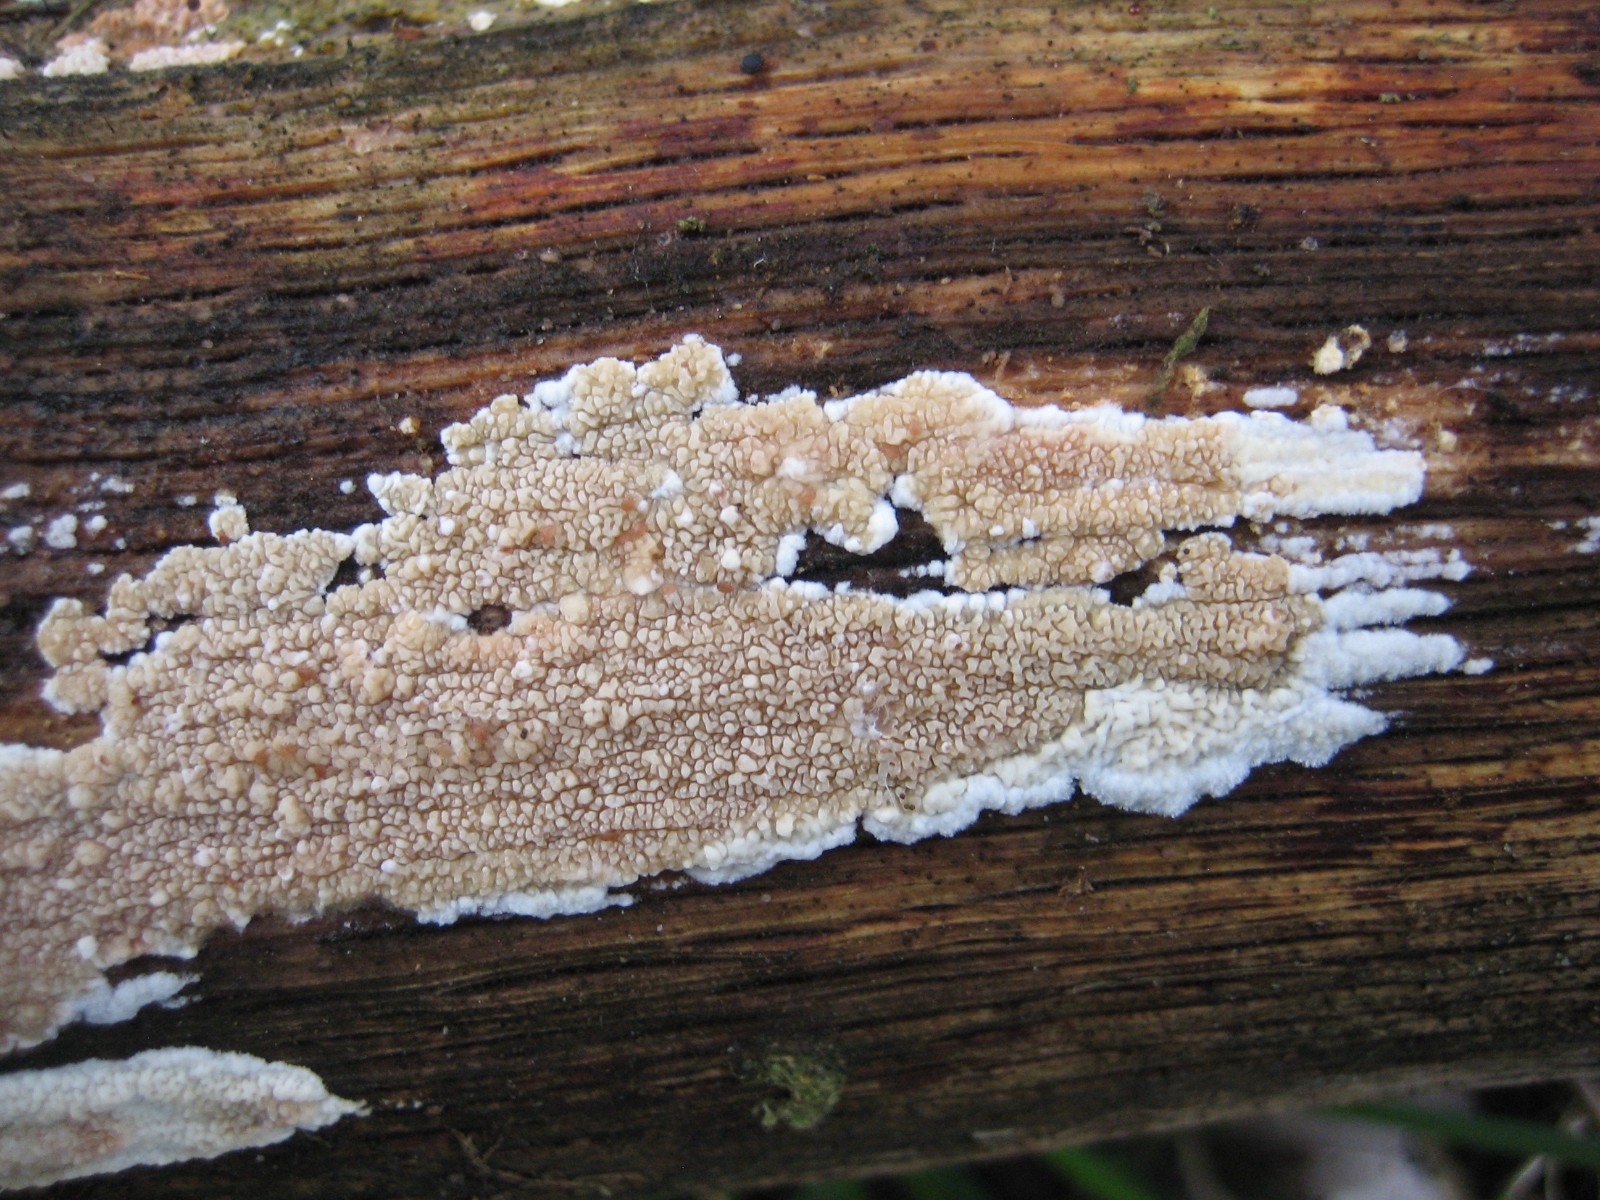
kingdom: Fungi
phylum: Basidiomycota
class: Agaricomycetes
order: Polyporales
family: Meruliaceae
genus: Phlebia
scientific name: Phlebia rufa
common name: ege-åresvamp
